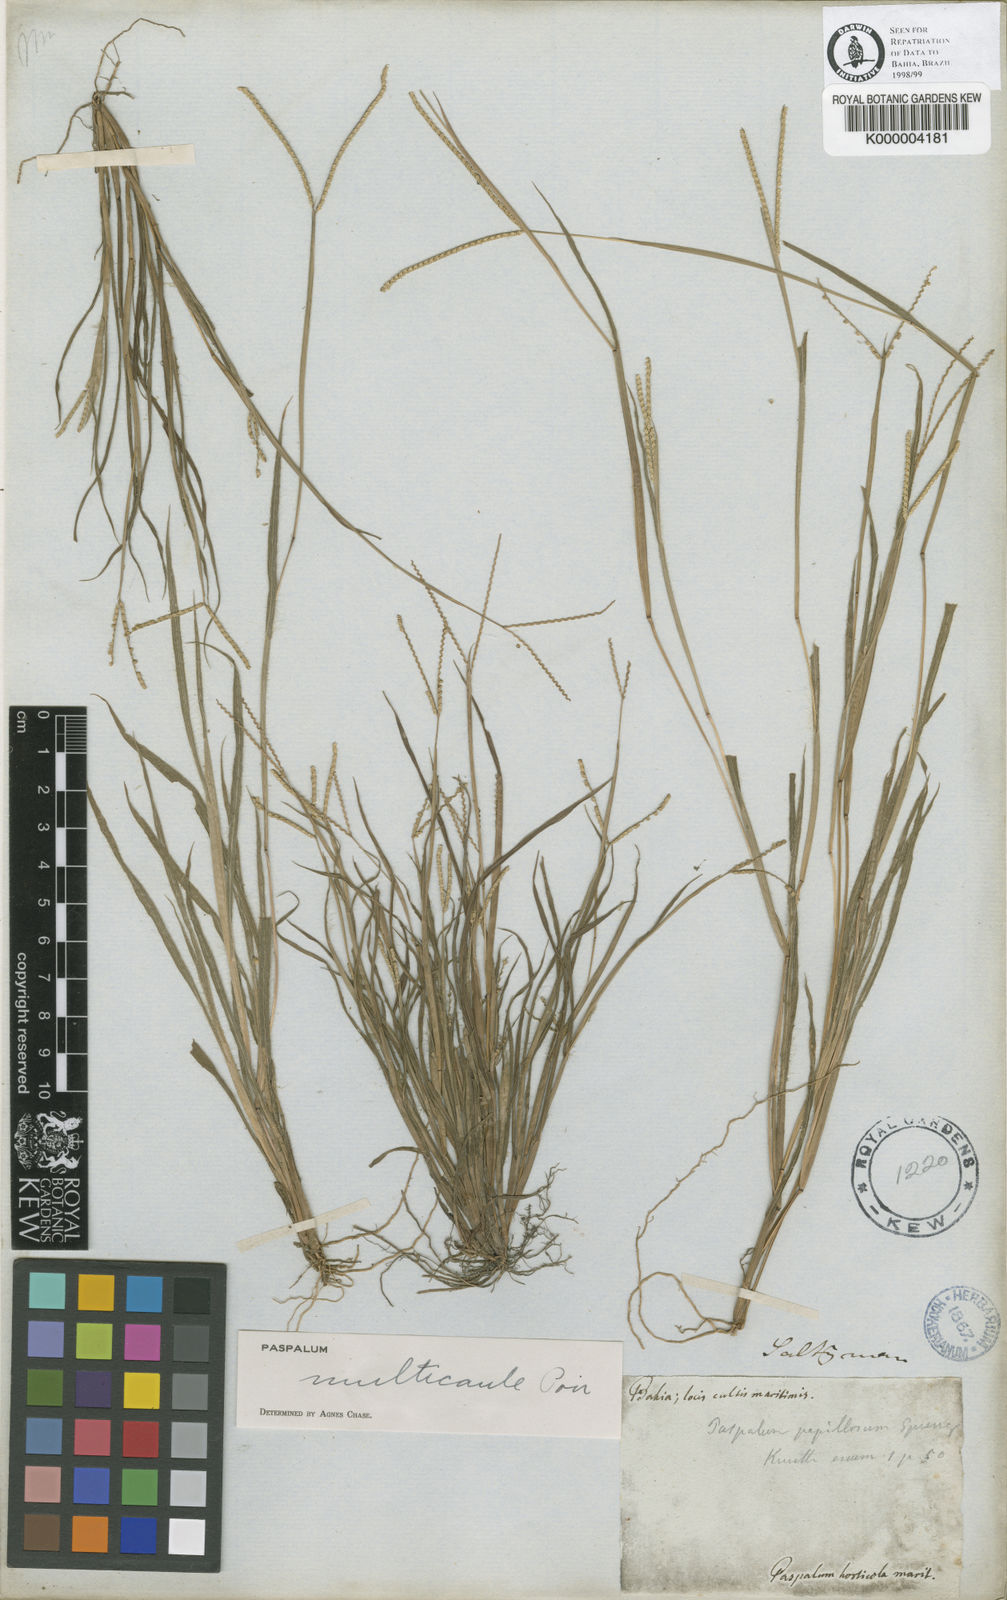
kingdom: Plantae
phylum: Tracheophyta
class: Liliopsida
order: Poales
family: Poaceae
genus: Paspalum
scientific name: Paspalum multicaule
